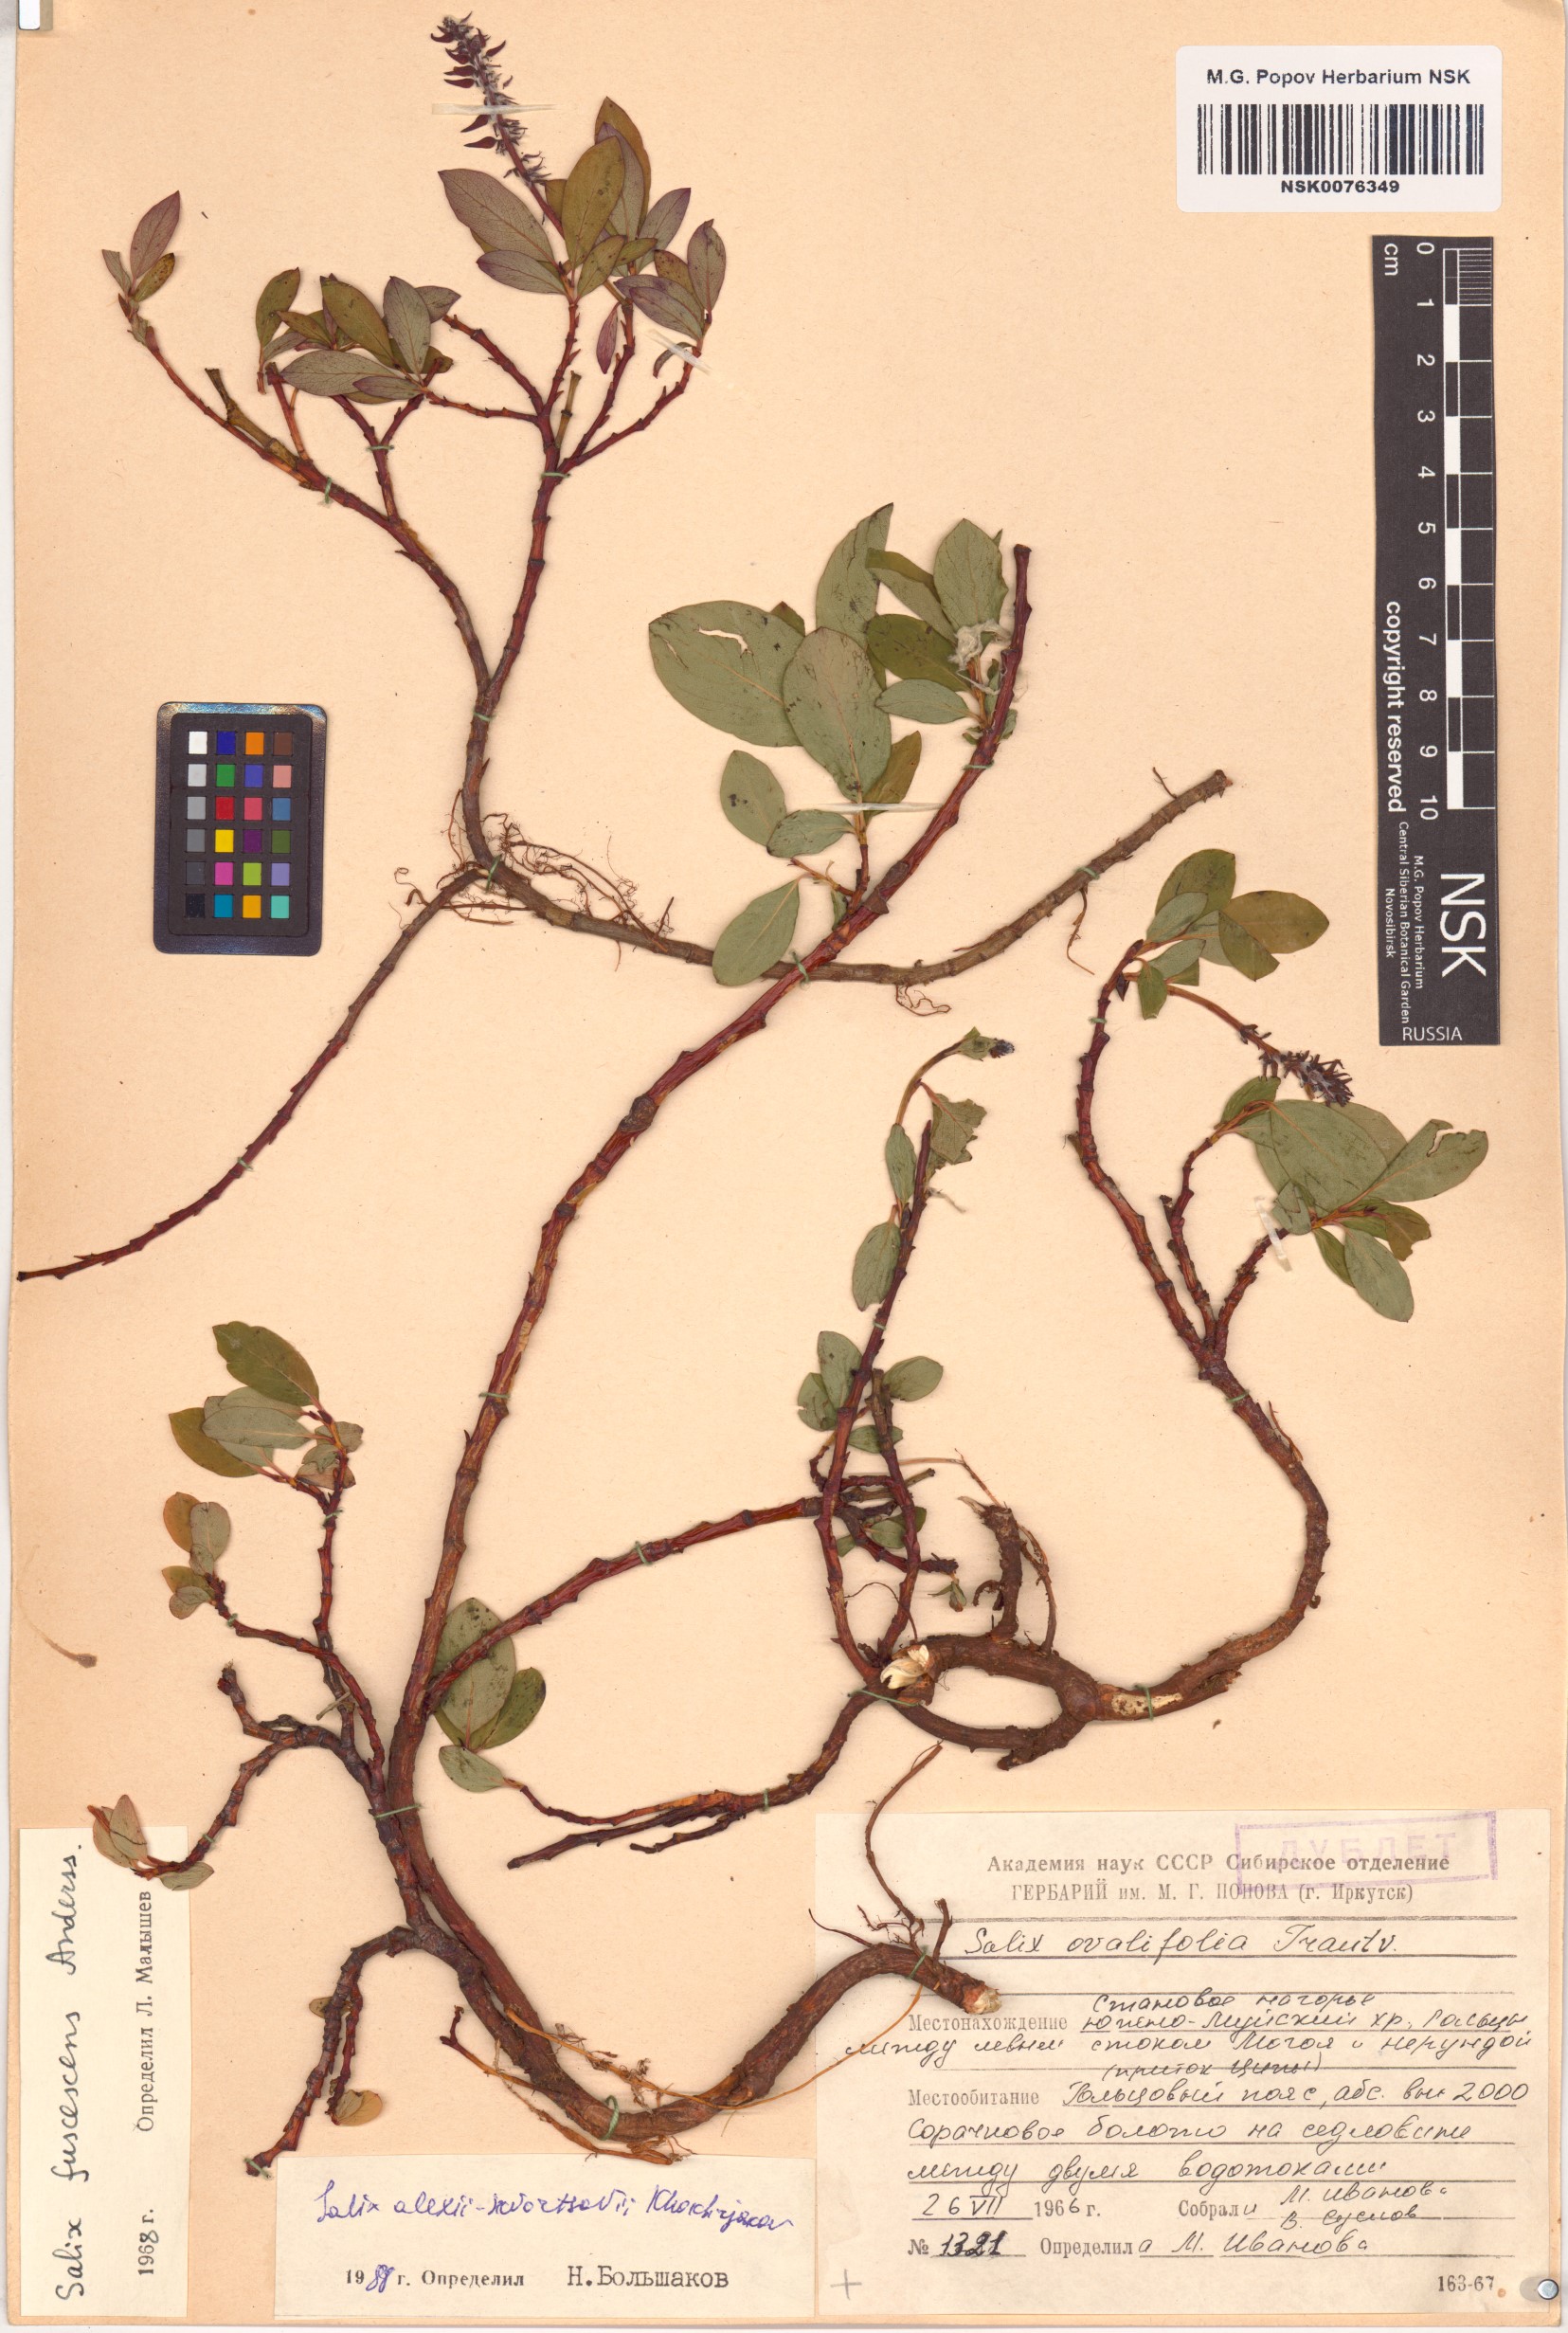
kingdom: Plantae
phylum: Tracheophyta
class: Magnoliopsida
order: Malpighiales
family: Salicaceae
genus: Salix
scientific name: Salix alexii-skvortzovii
